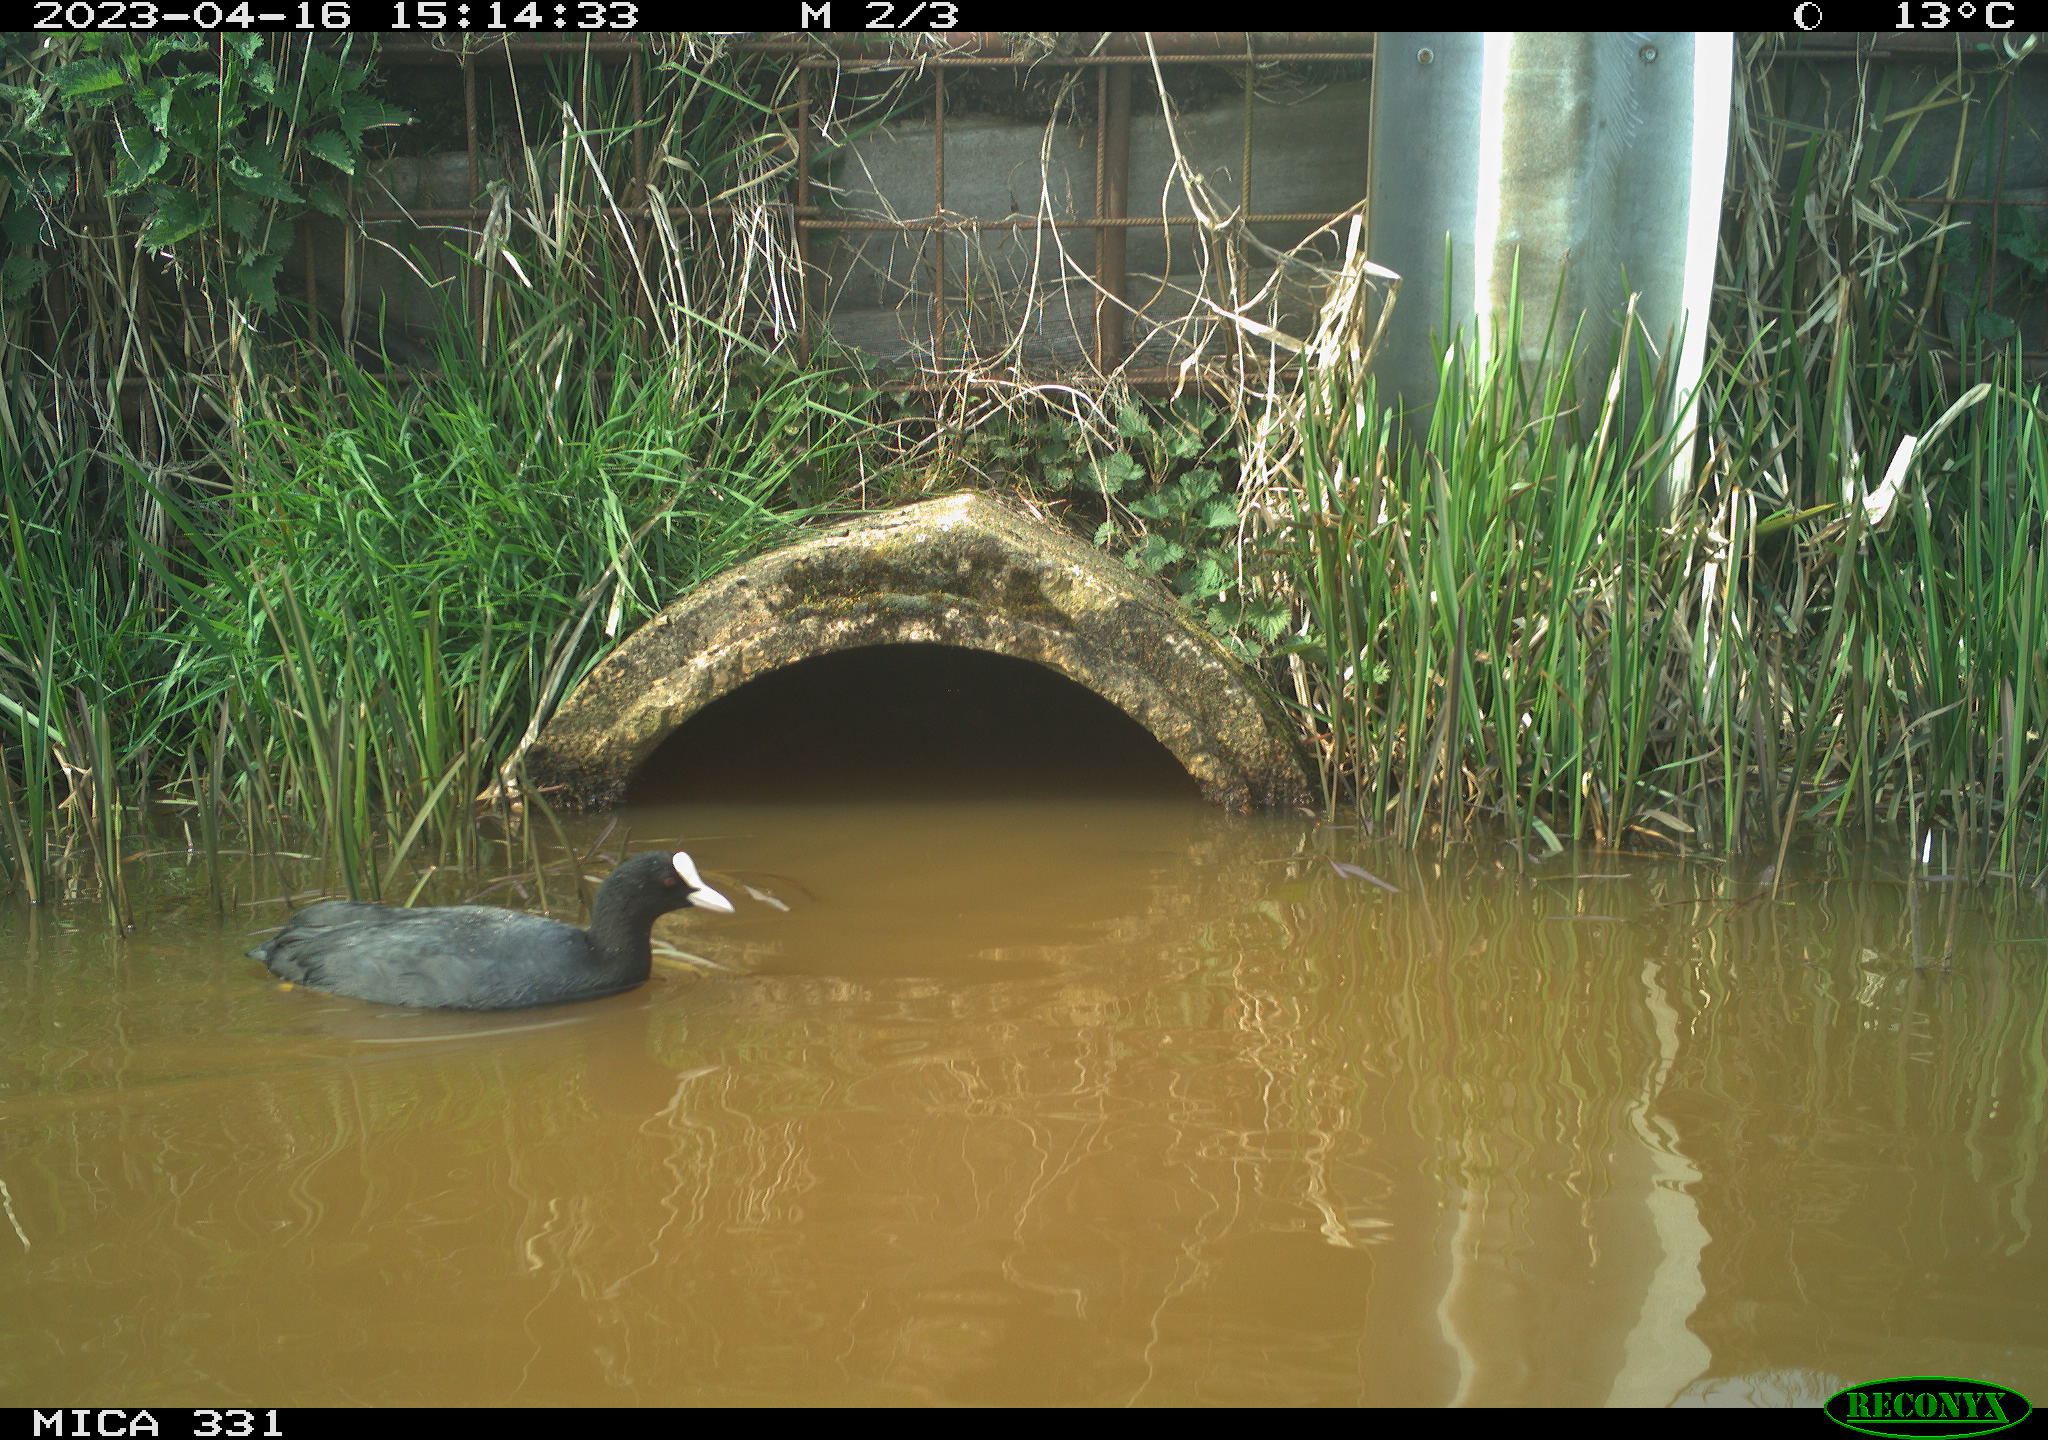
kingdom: Animalia
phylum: Chordata
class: Aves
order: Gruiformes
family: Rallidae
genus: Fulica
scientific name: Fulica atra
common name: Eurasian coot
